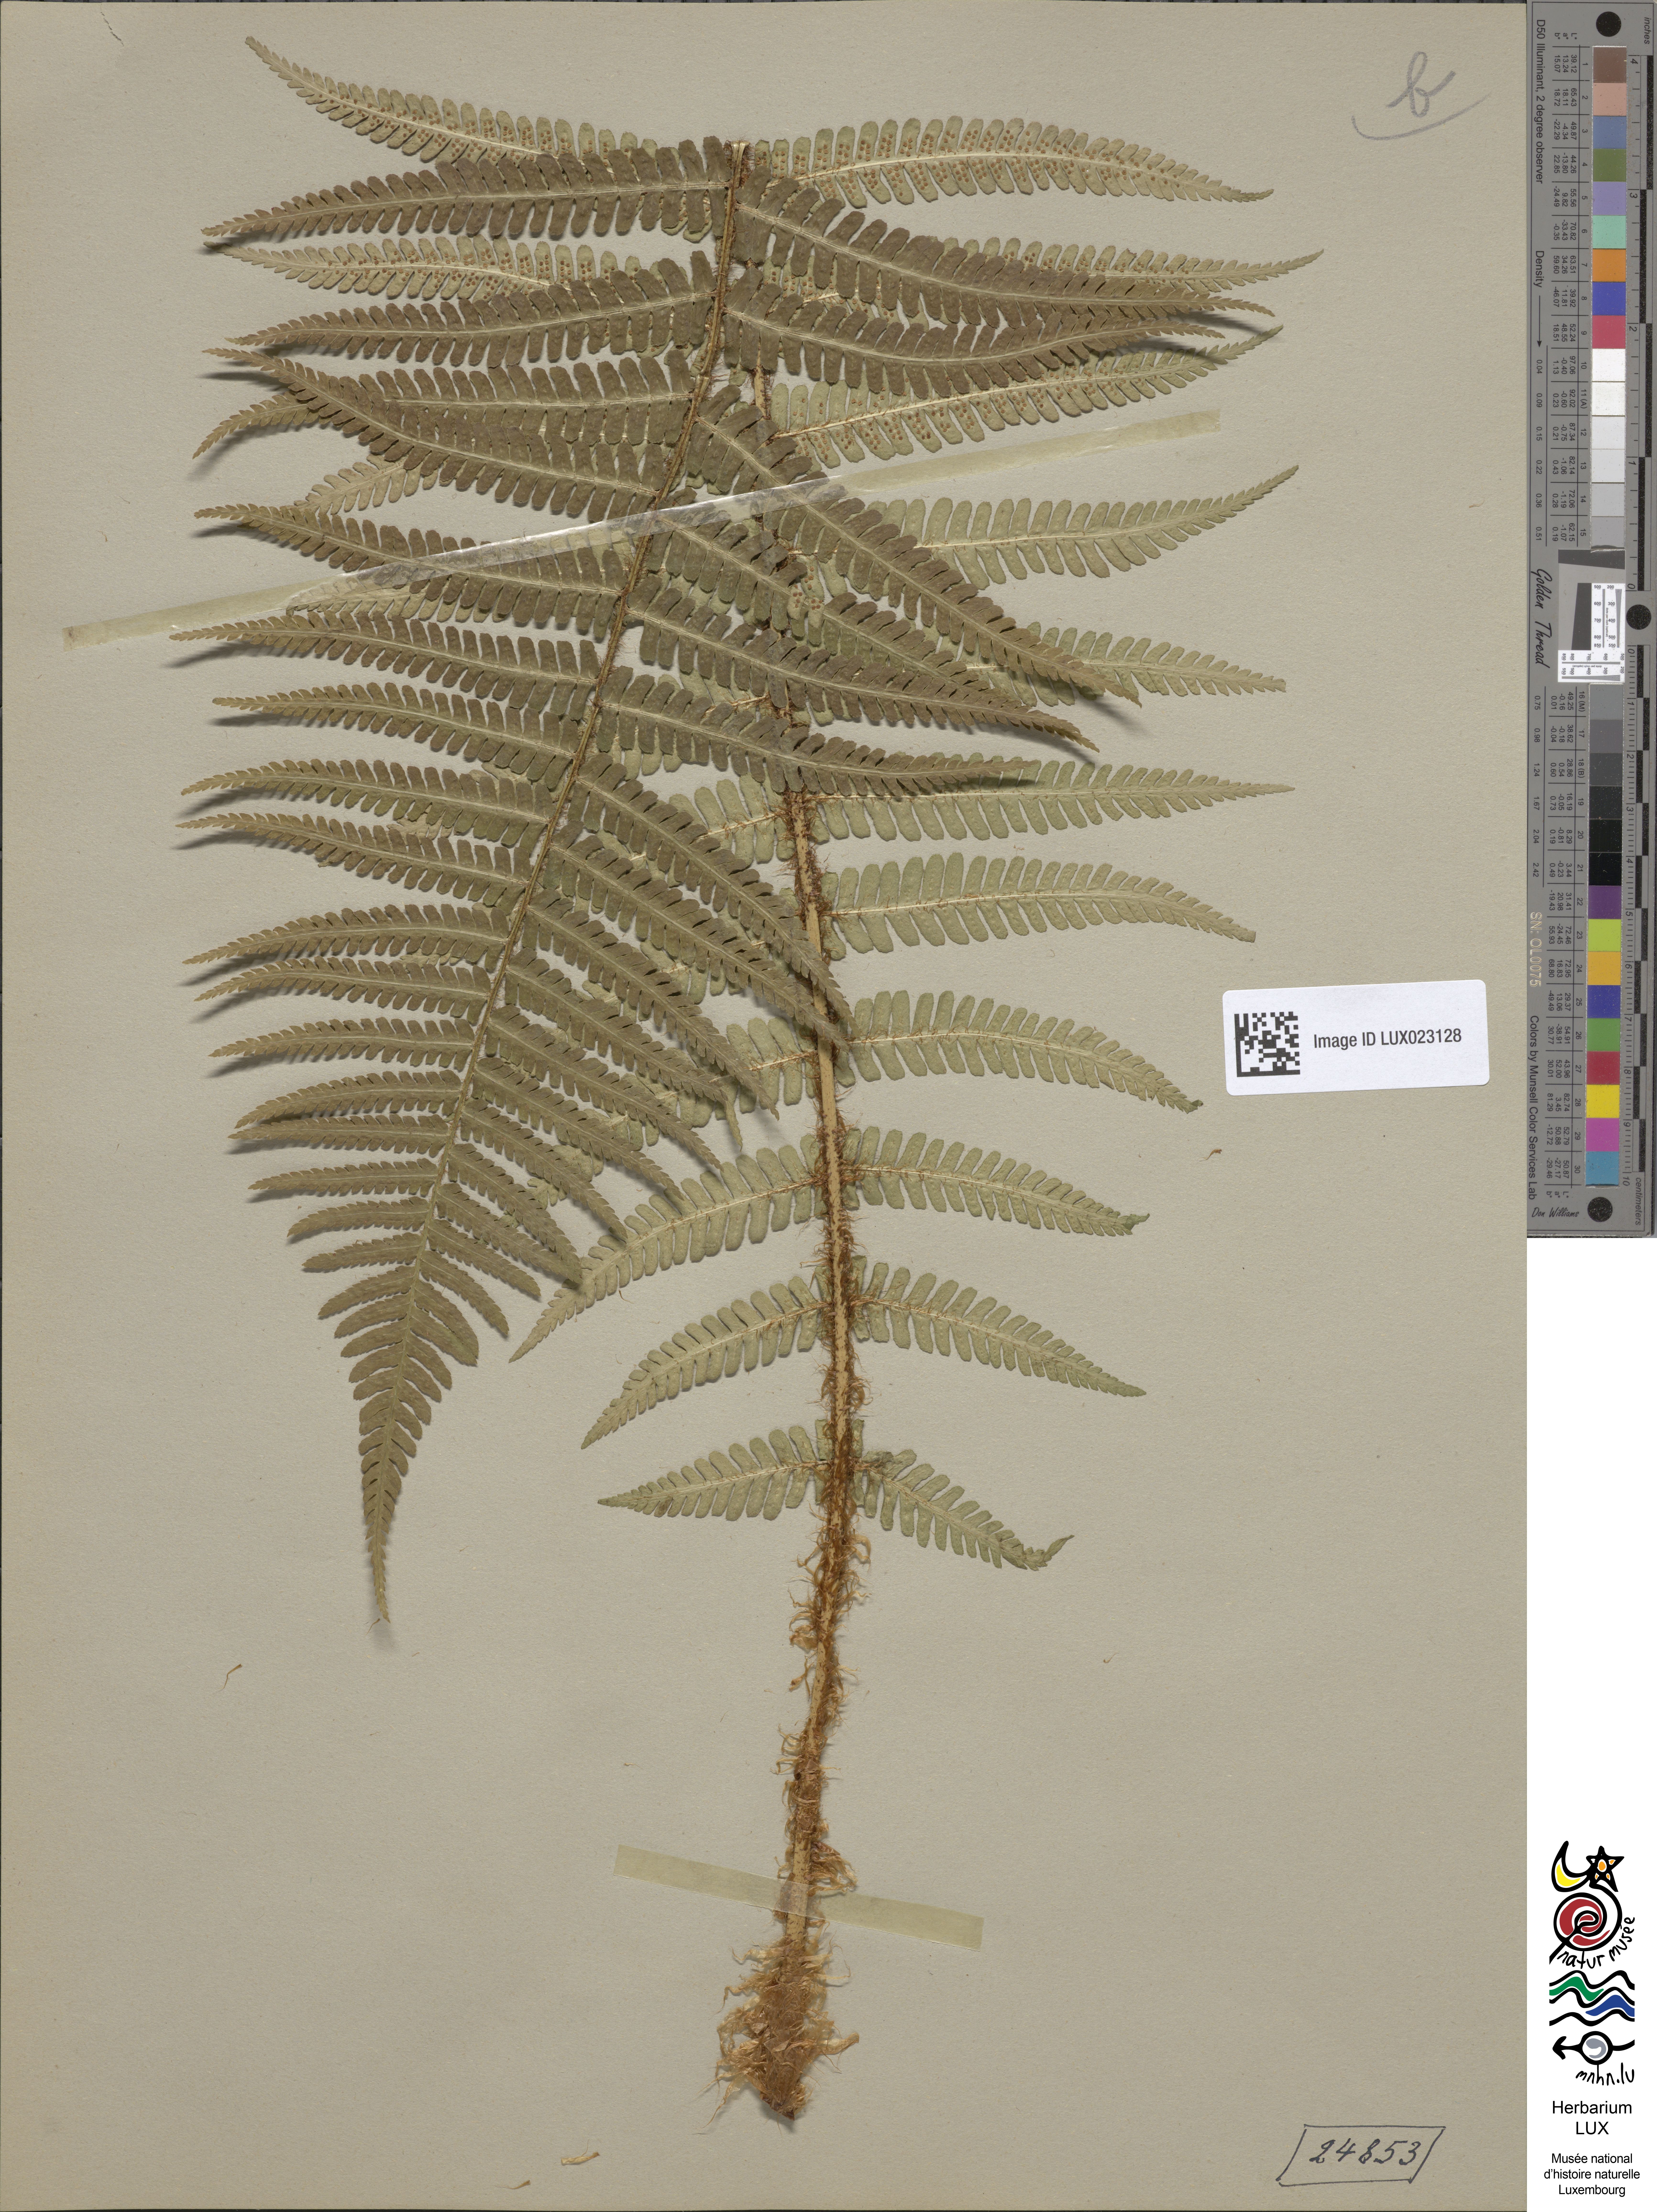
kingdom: Plantae
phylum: Tracheophyta
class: Polypodiopsida
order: Polypodiales
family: Dryopteridaceae
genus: Dryopteris
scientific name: Dryopteris borreri
